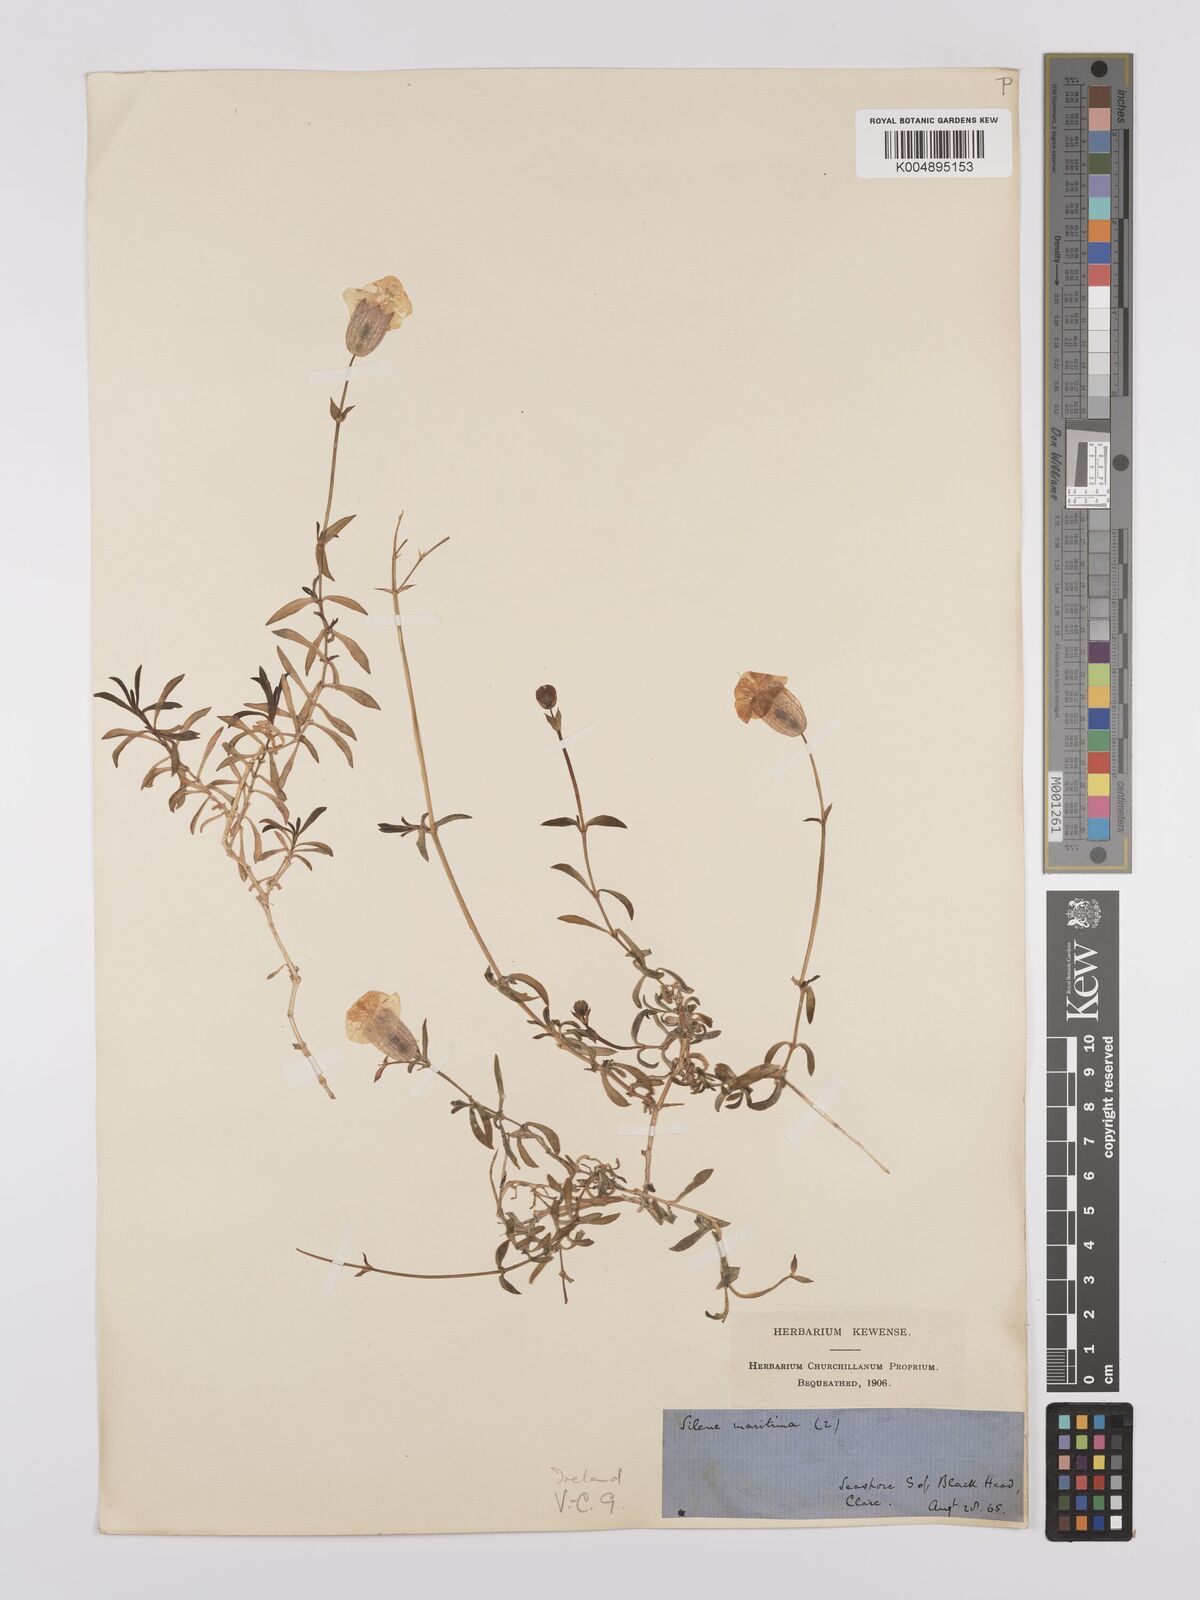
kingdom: Plantae
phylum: Tracheophyta
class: Magnoliopsida
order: Caryophyllales
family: Caryophyllaceae
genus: Silene
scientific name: Silene uniflora
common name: Sea campion
